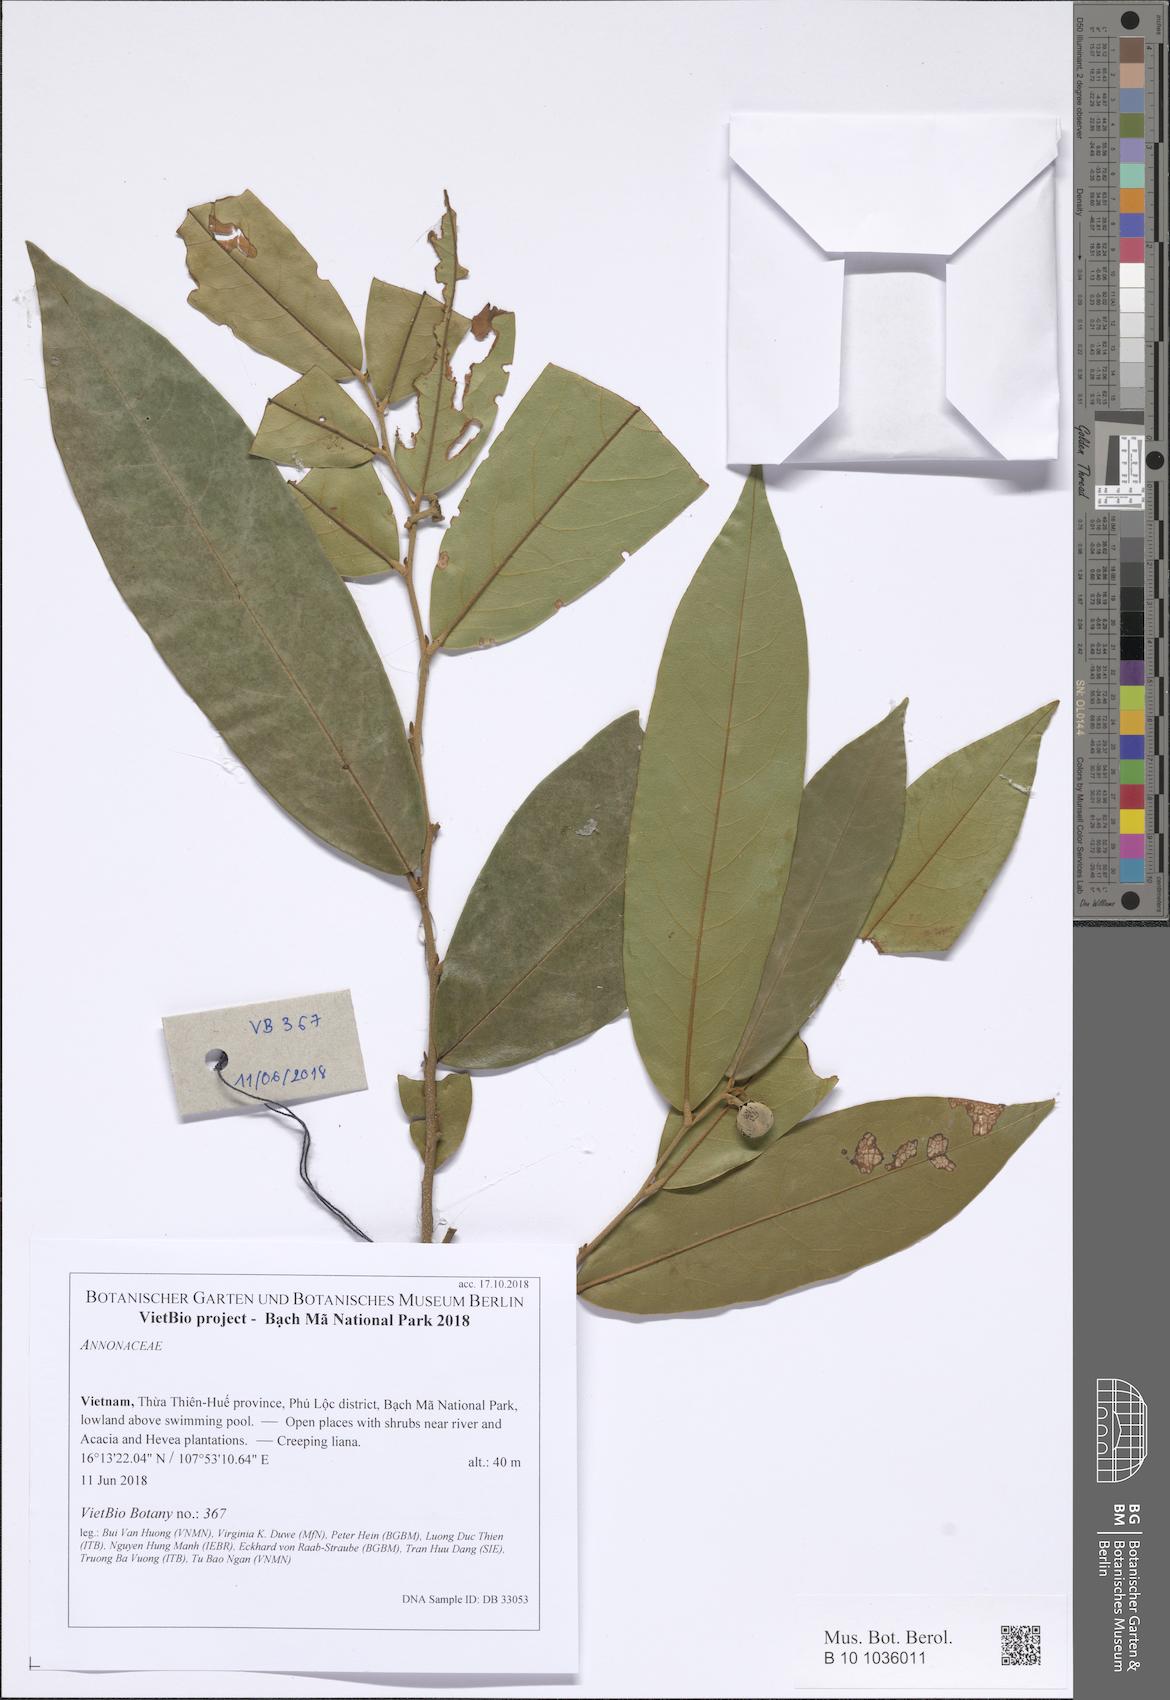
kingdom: Plantae
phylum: Tracheophyta
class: Magnoliopsida
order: Magnoliales
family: Annonaceae
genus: Polyalthia
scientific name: Polyalthia
